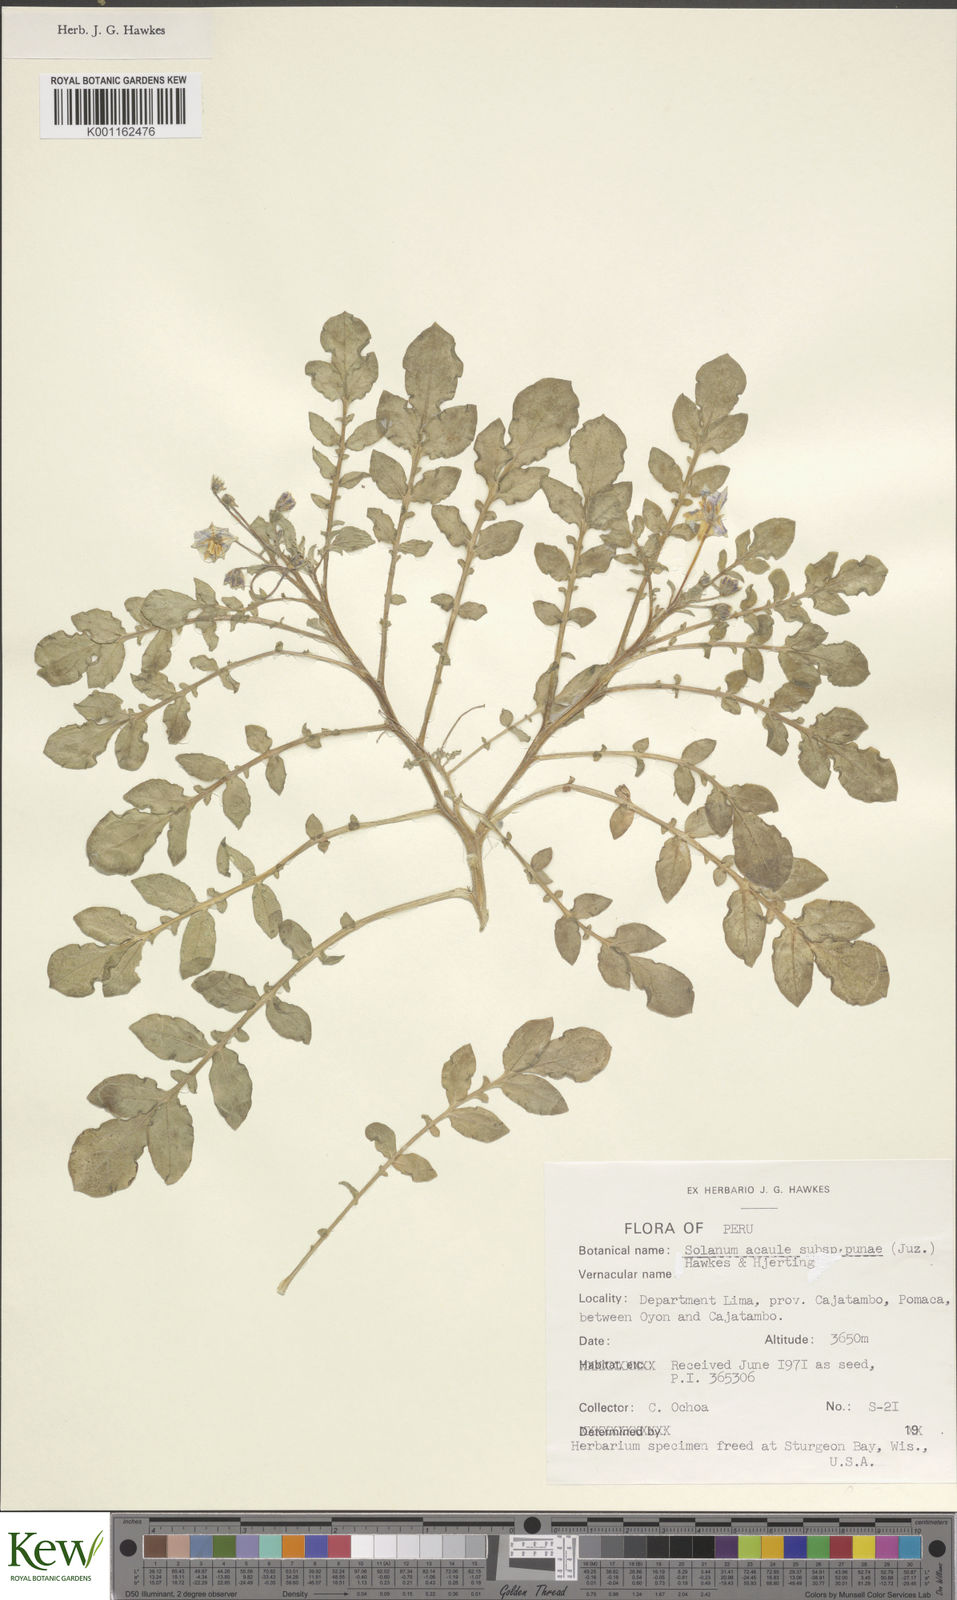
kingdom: Plantae
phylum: Tracheophyta
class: Magnoliopsida
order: Solanales
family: Solanaceae
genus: Solanum
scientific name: Solanum acaule
